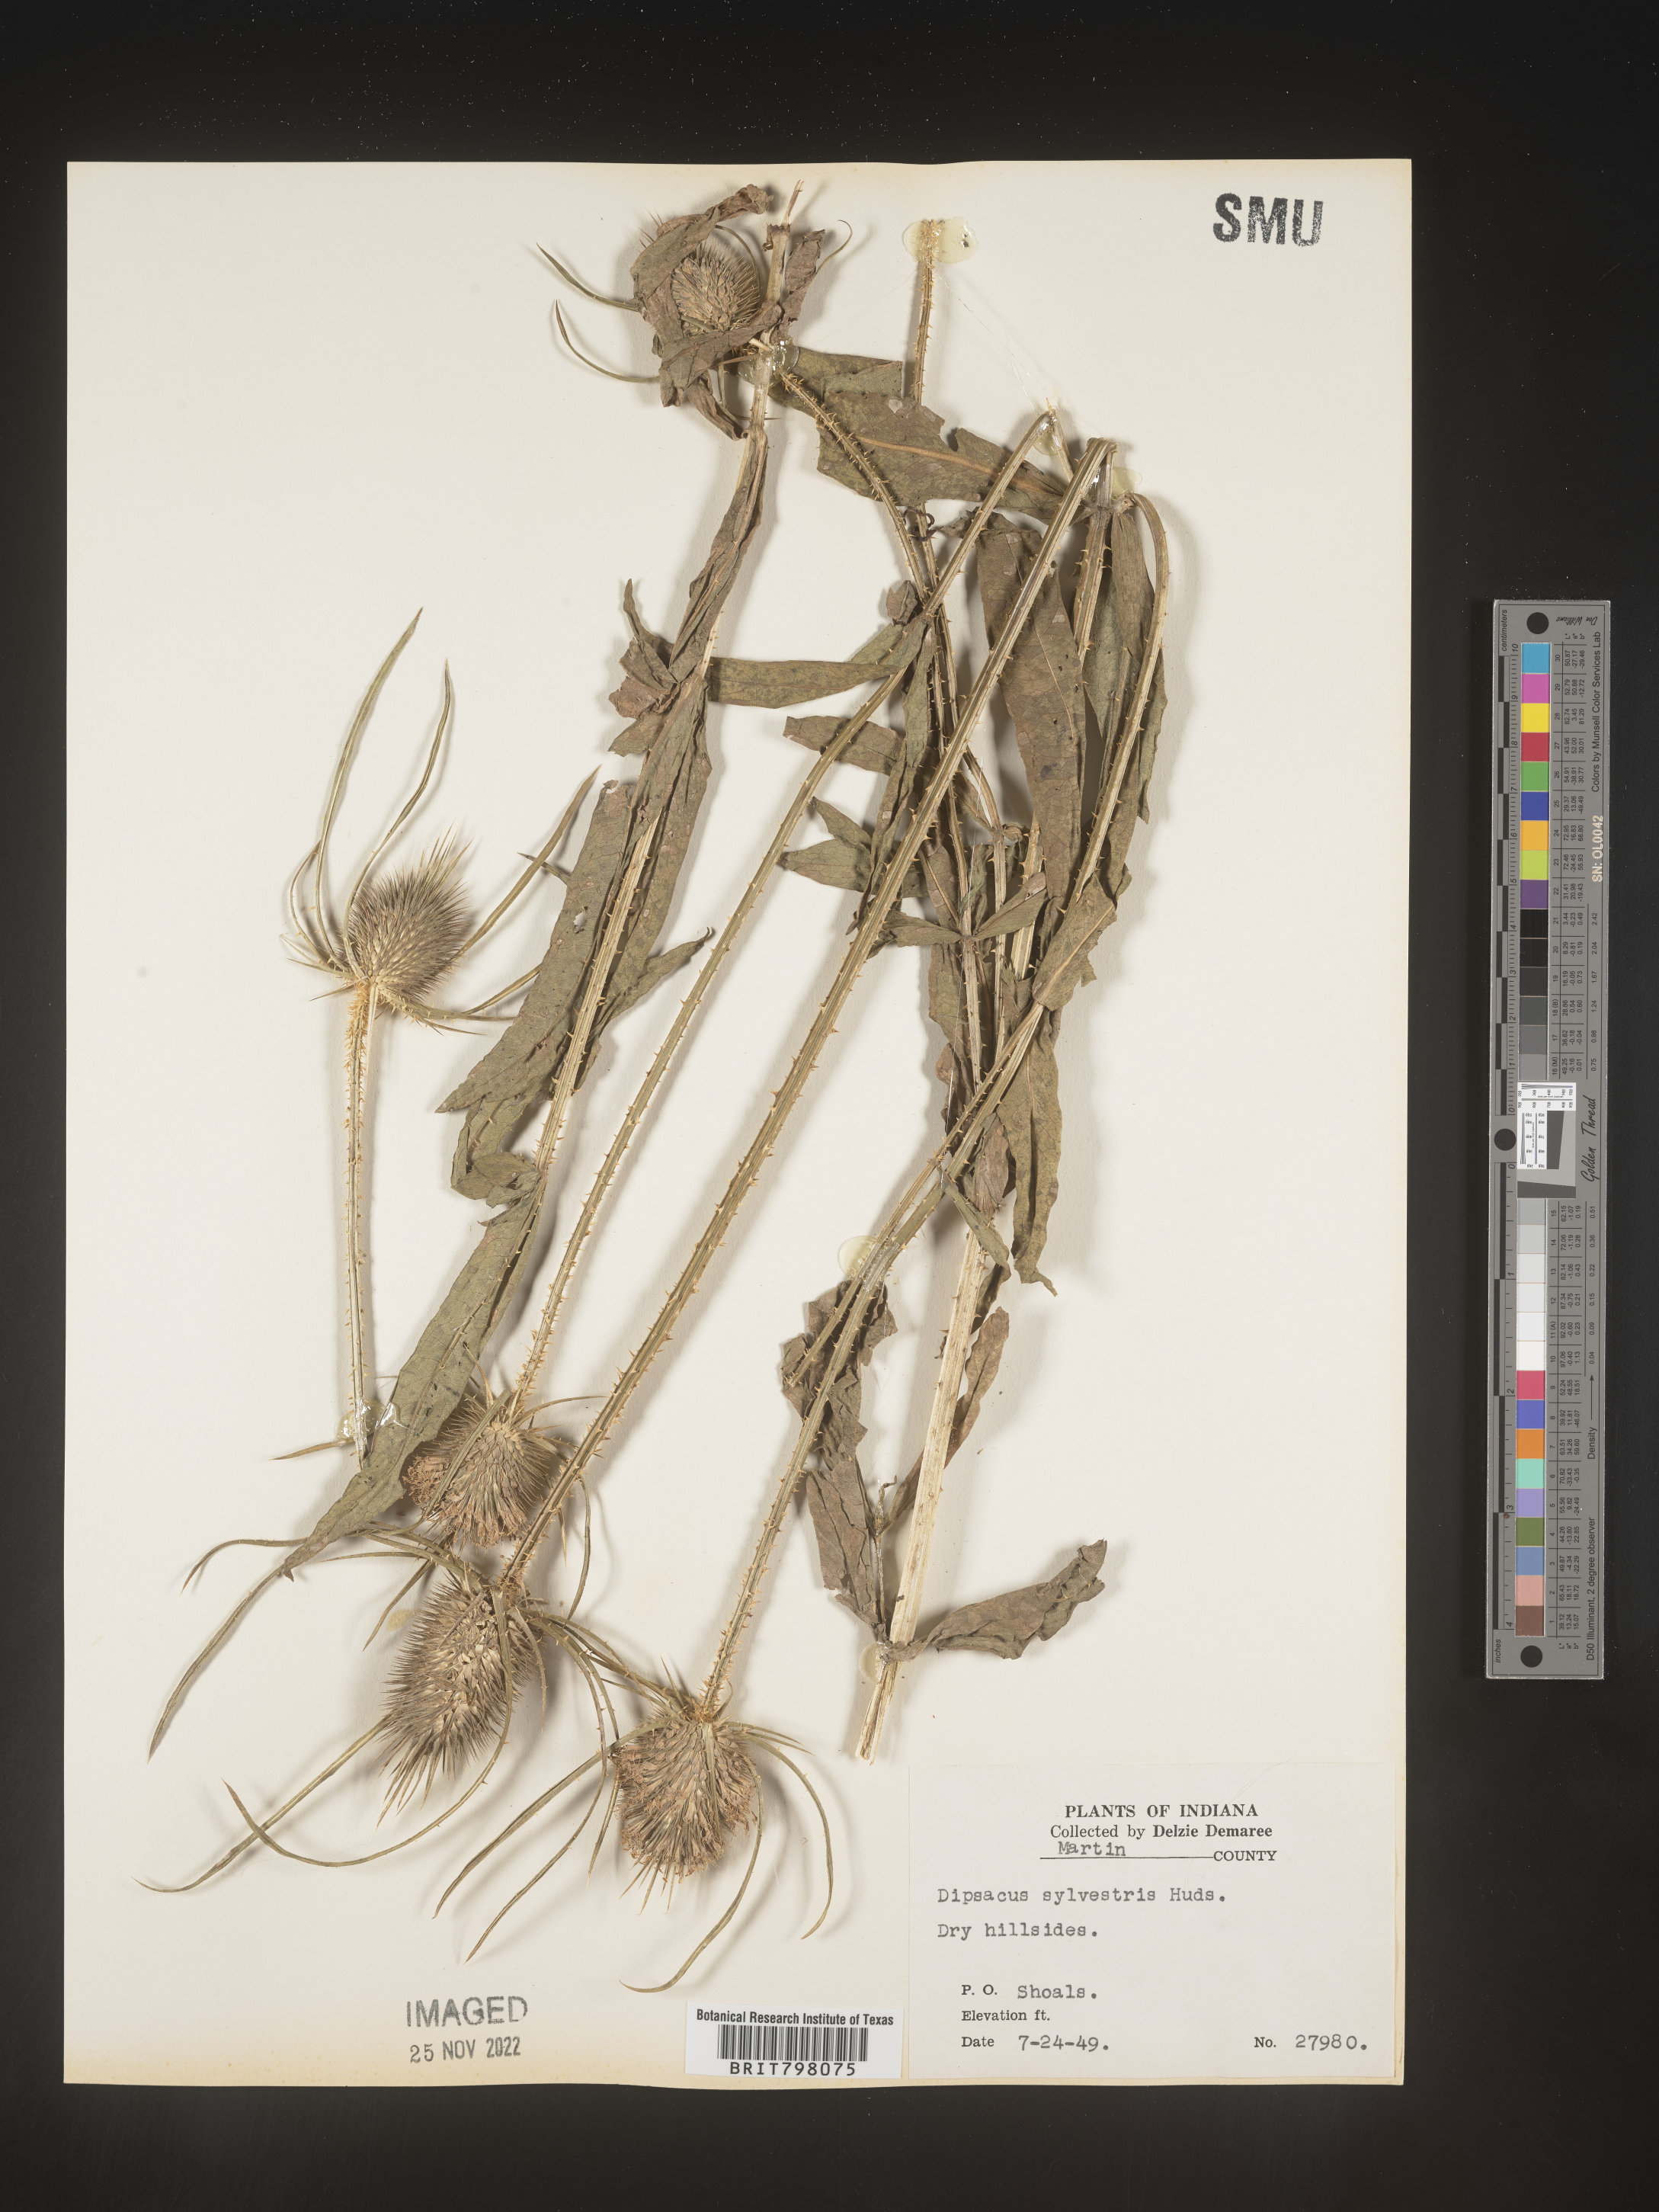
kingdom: Plantae
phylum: Tracheophyta
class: Magnoliopsida
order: Dipsacales
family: Caprifoliaceae
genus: Dipsacus
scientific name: Dipsacus fullonum
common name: Teasel
